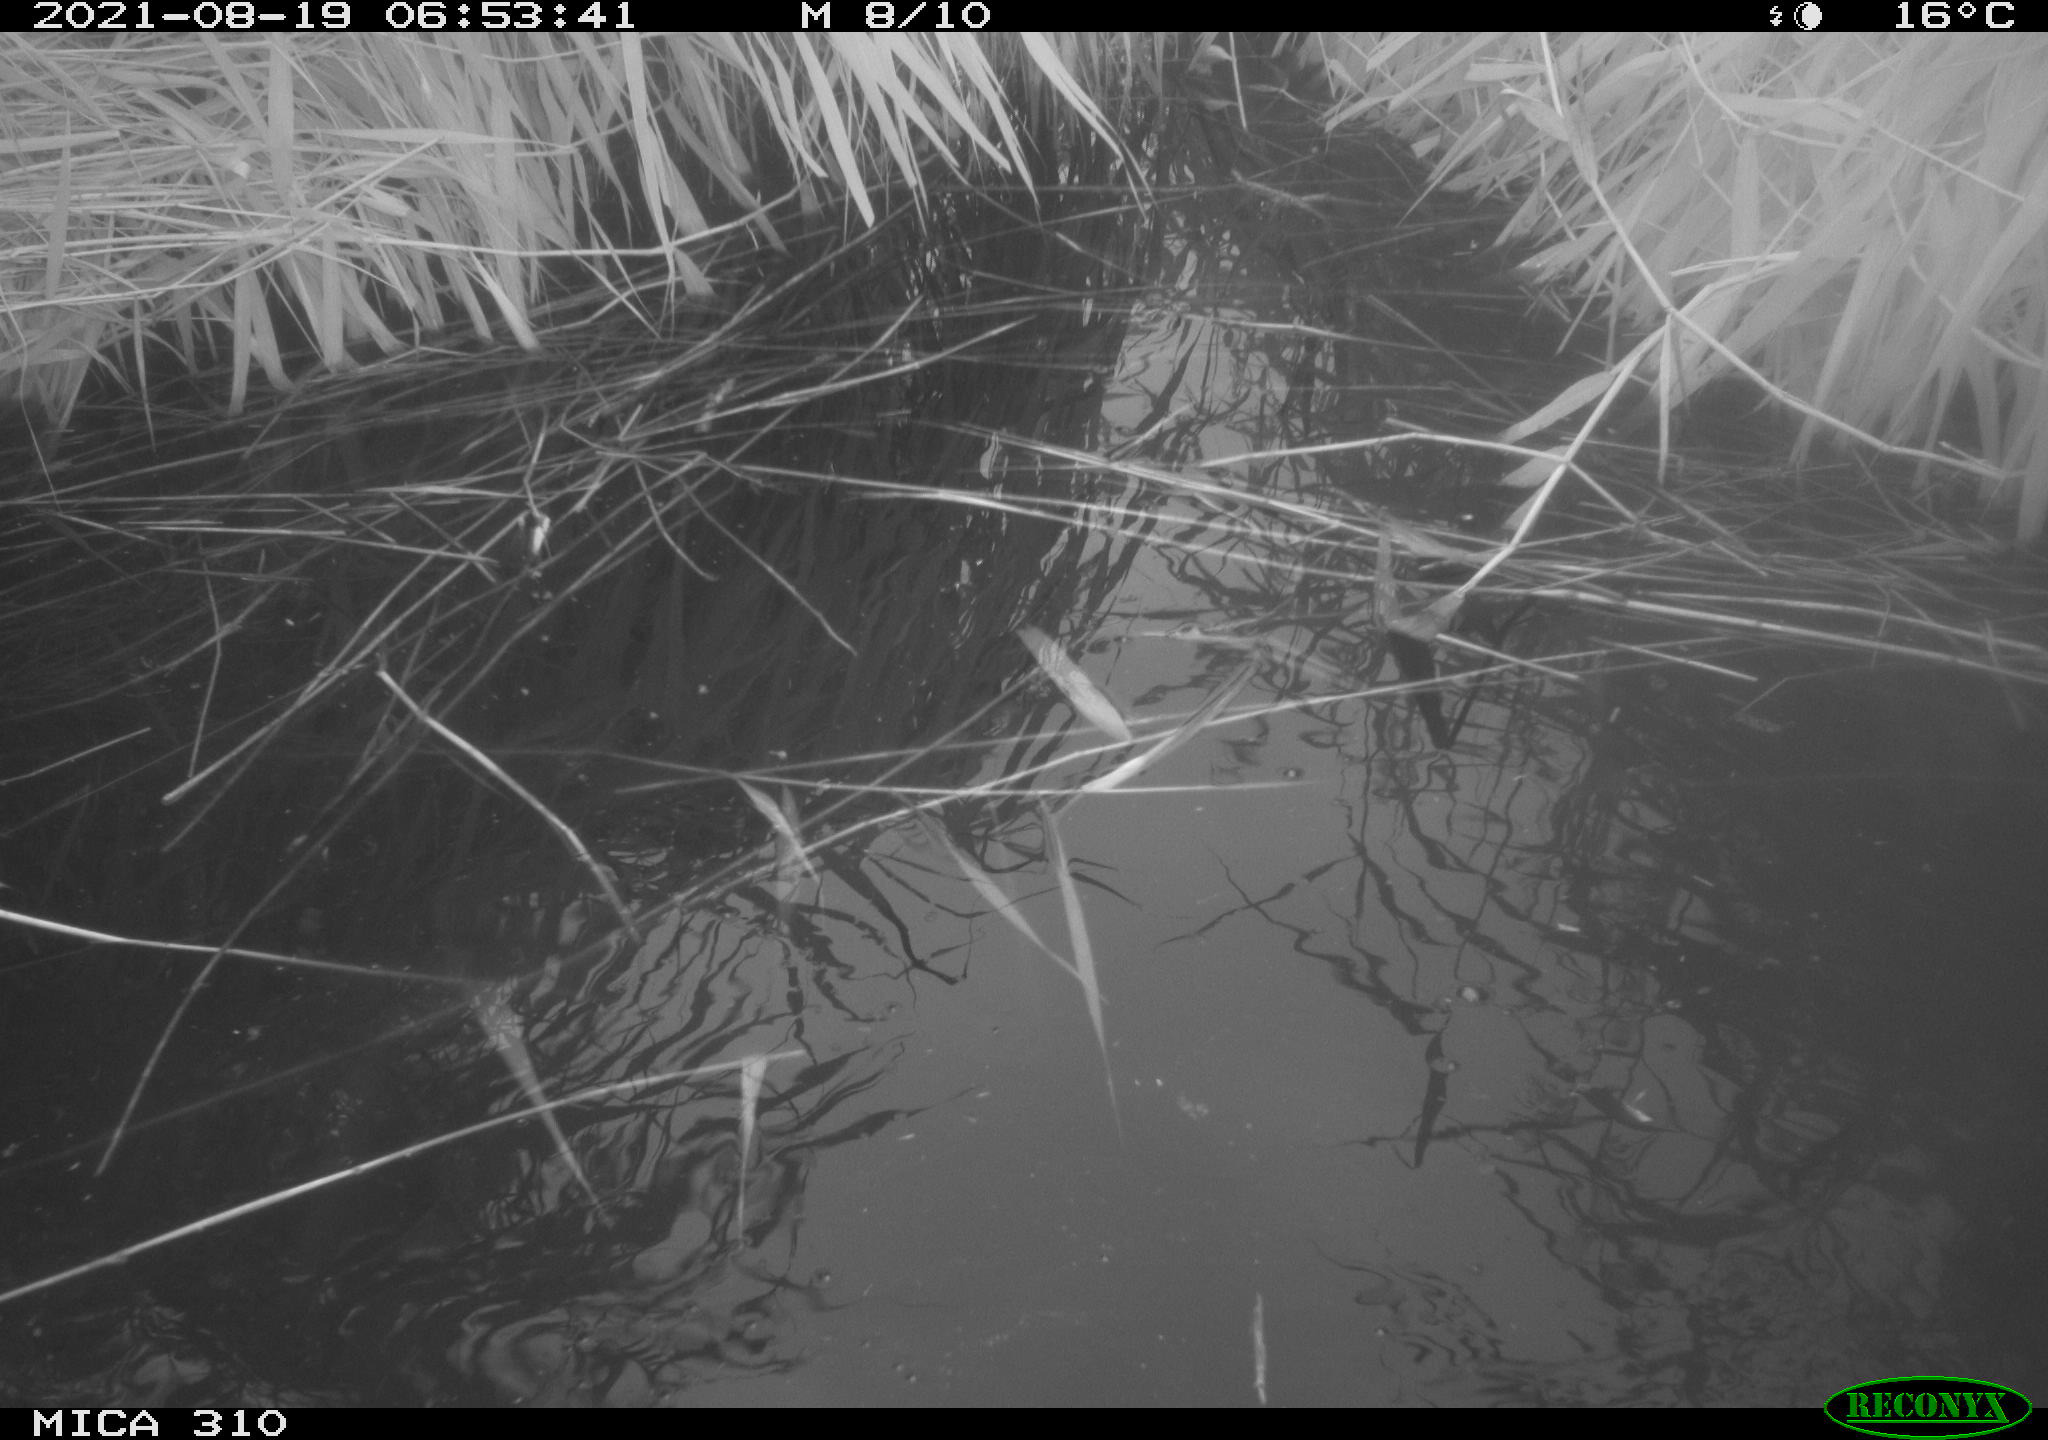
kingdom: Animalia
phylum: Chordata
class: Aves
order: Gruiformes
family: Rallidae
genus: Fulica
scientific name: Fulica atra
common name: Eurasian coot
